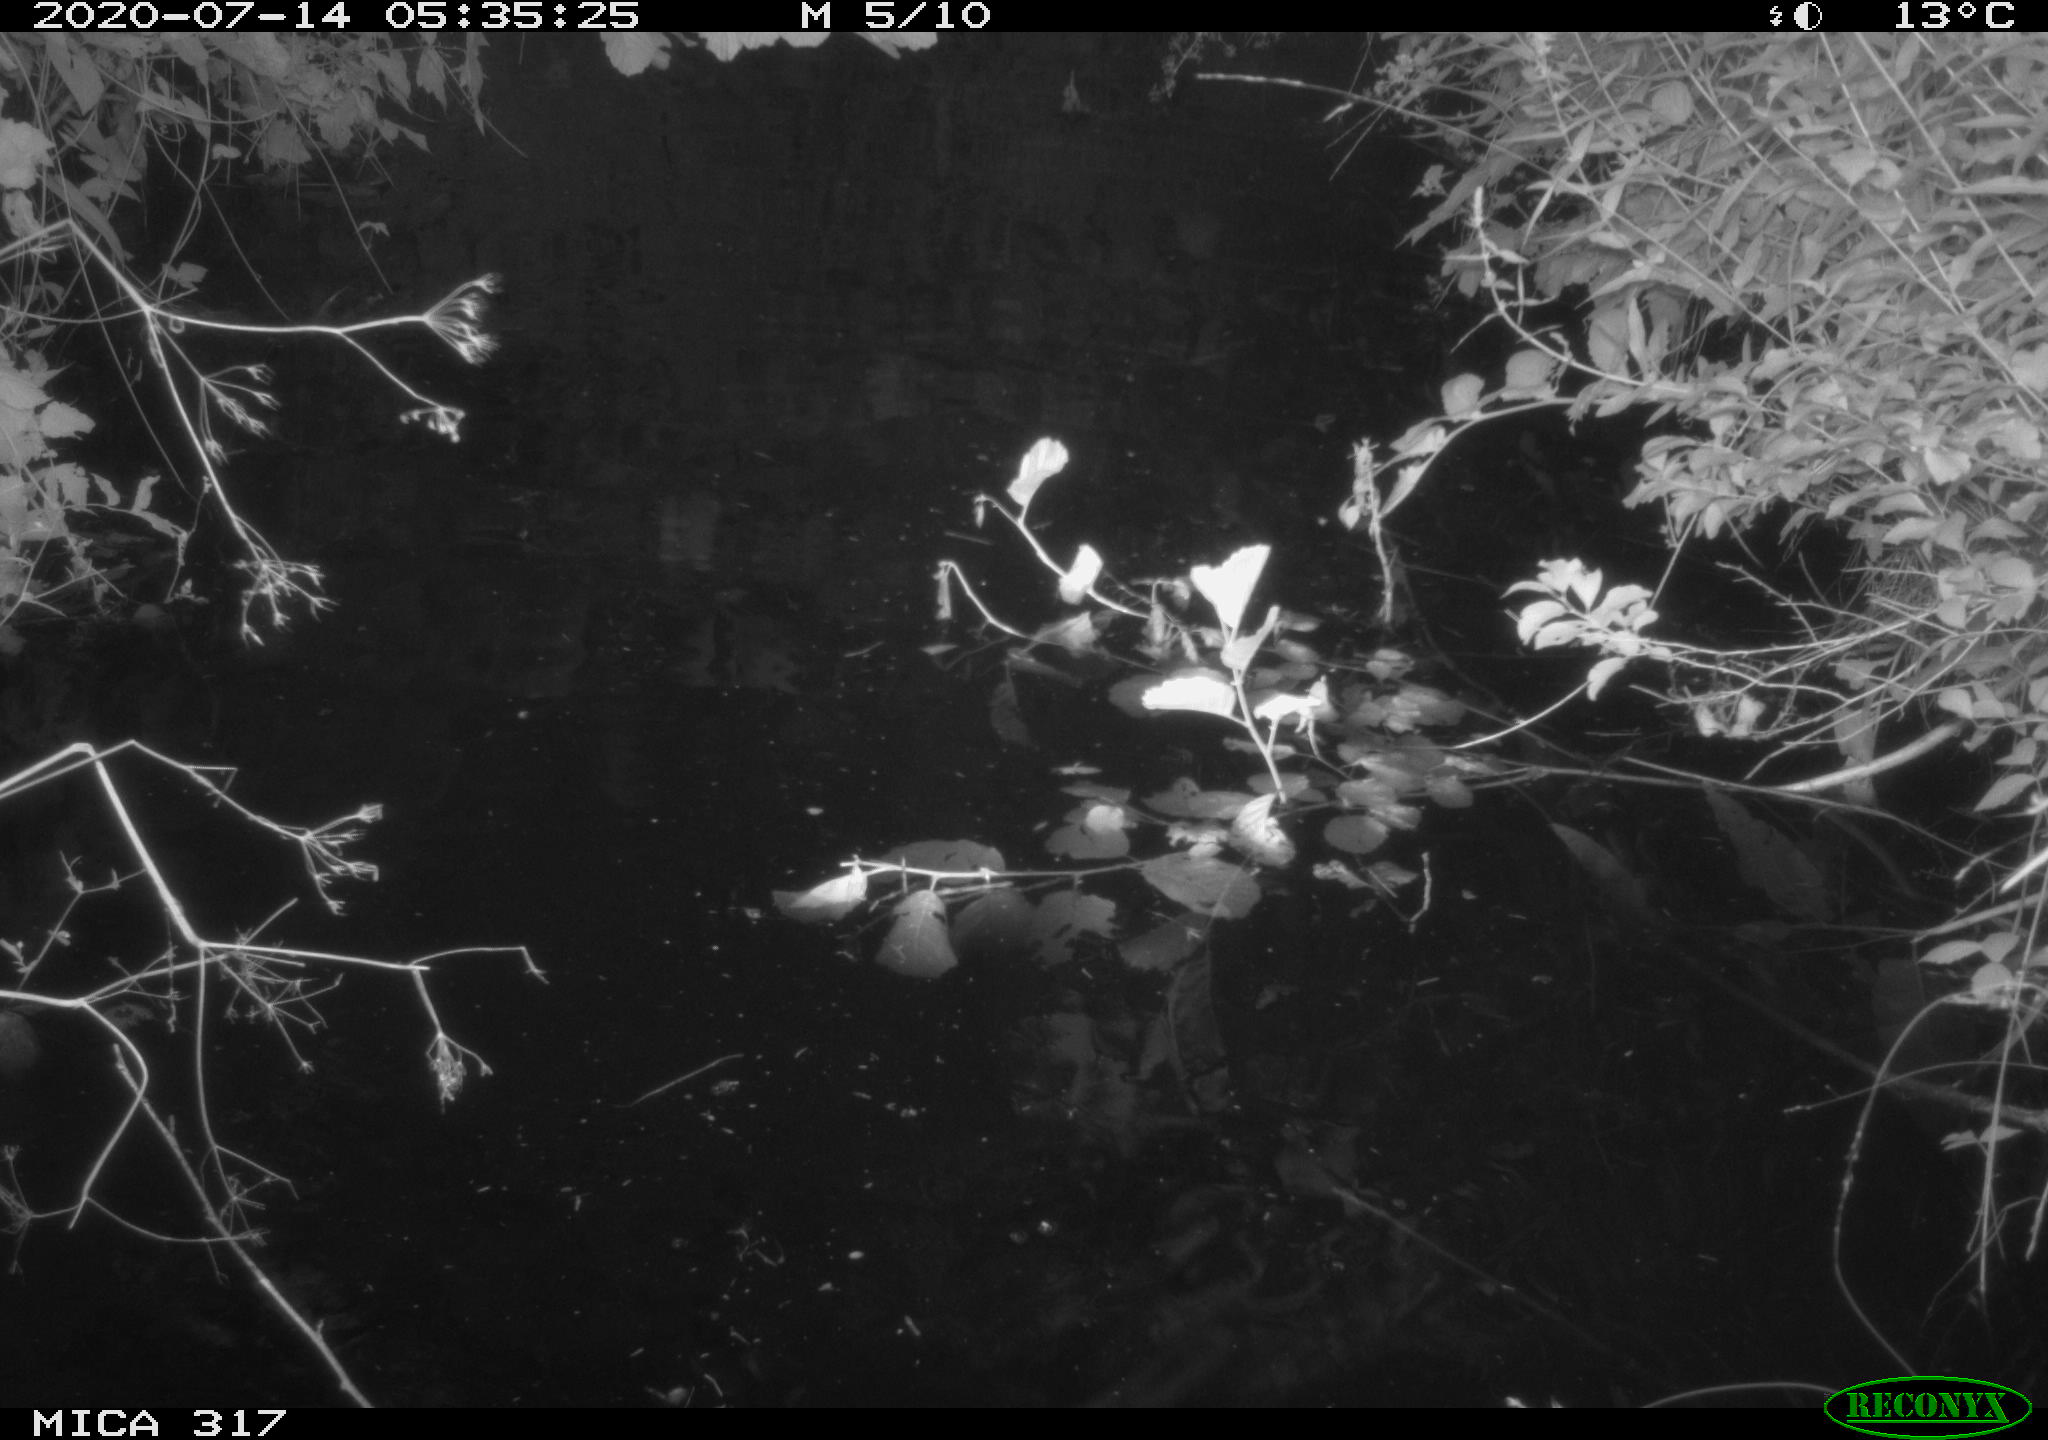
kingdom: Animalia
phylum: Chordata
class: Aves
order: Anseriformes
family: Anatidae
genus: Anas
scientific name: Anas platyrhynchos
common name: Mallard
